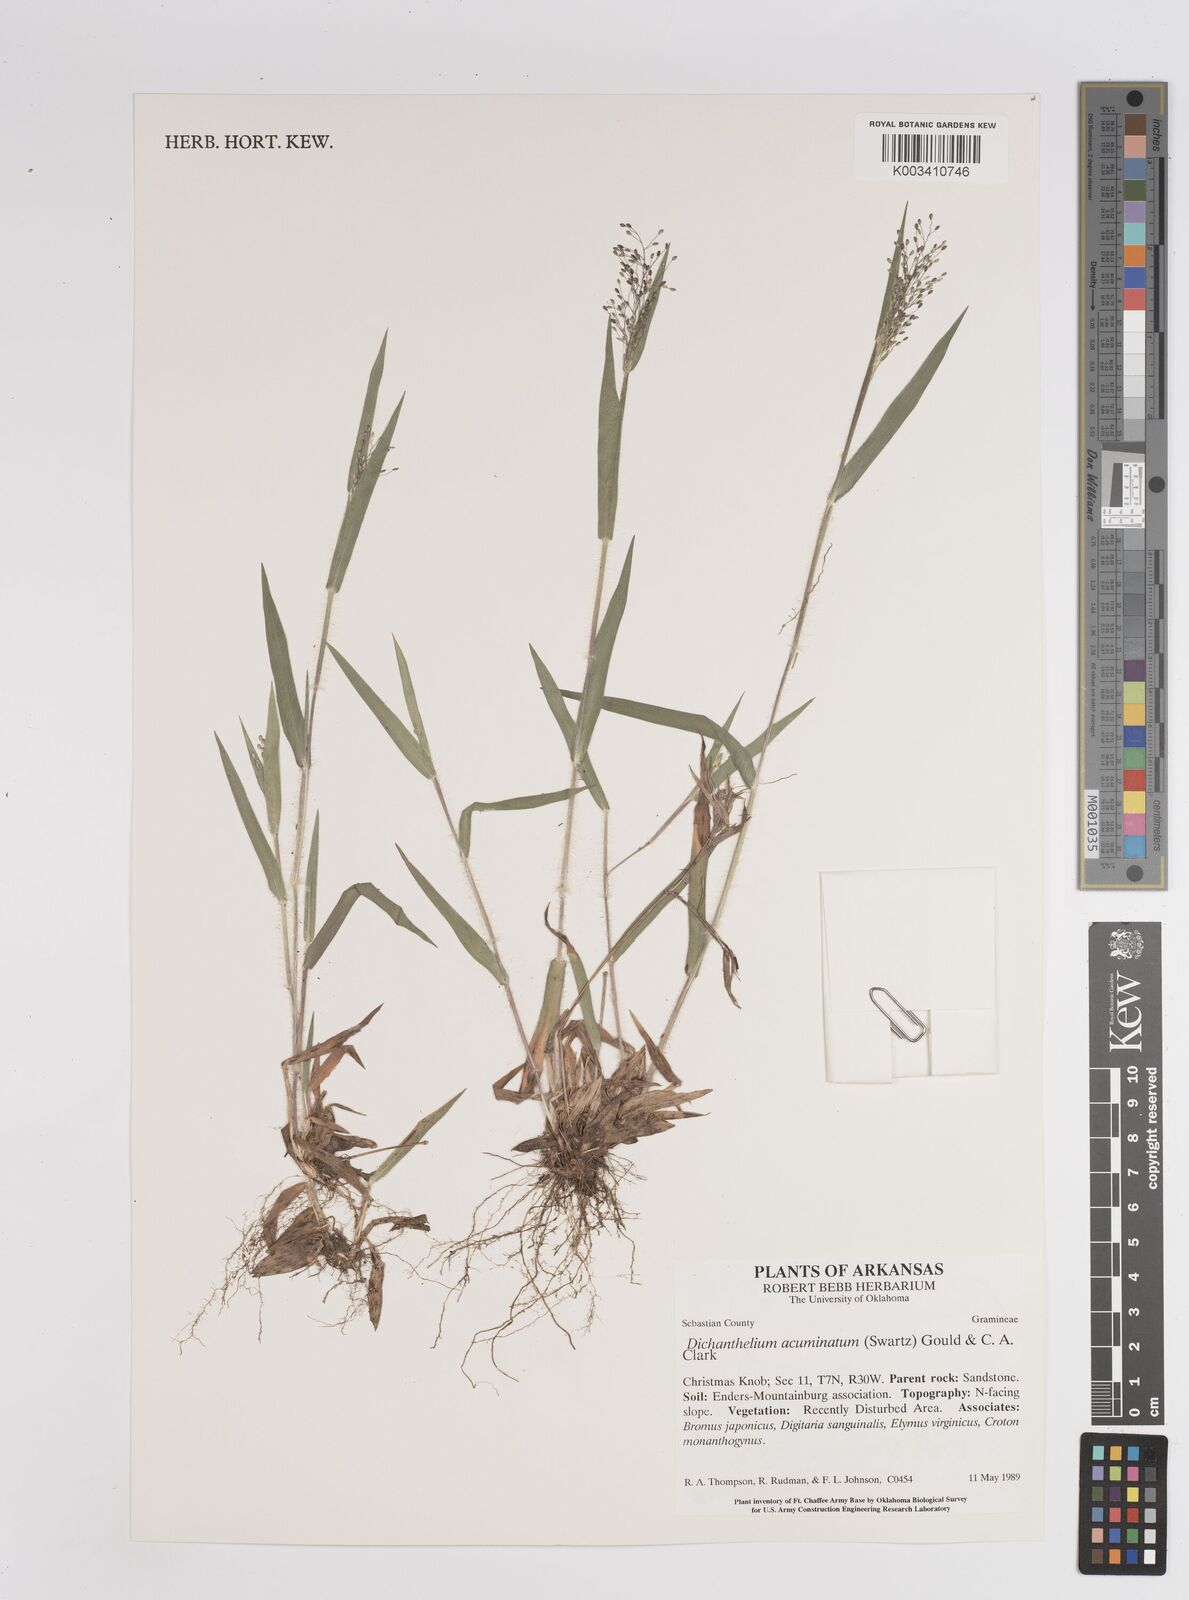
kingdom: Plantae
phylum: Tracheophyta
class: Liliopsida
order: Poales
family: Poaceae
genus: Dichanthelium
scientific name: Dichanthelium acuminatum
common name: Hairy panic grass
